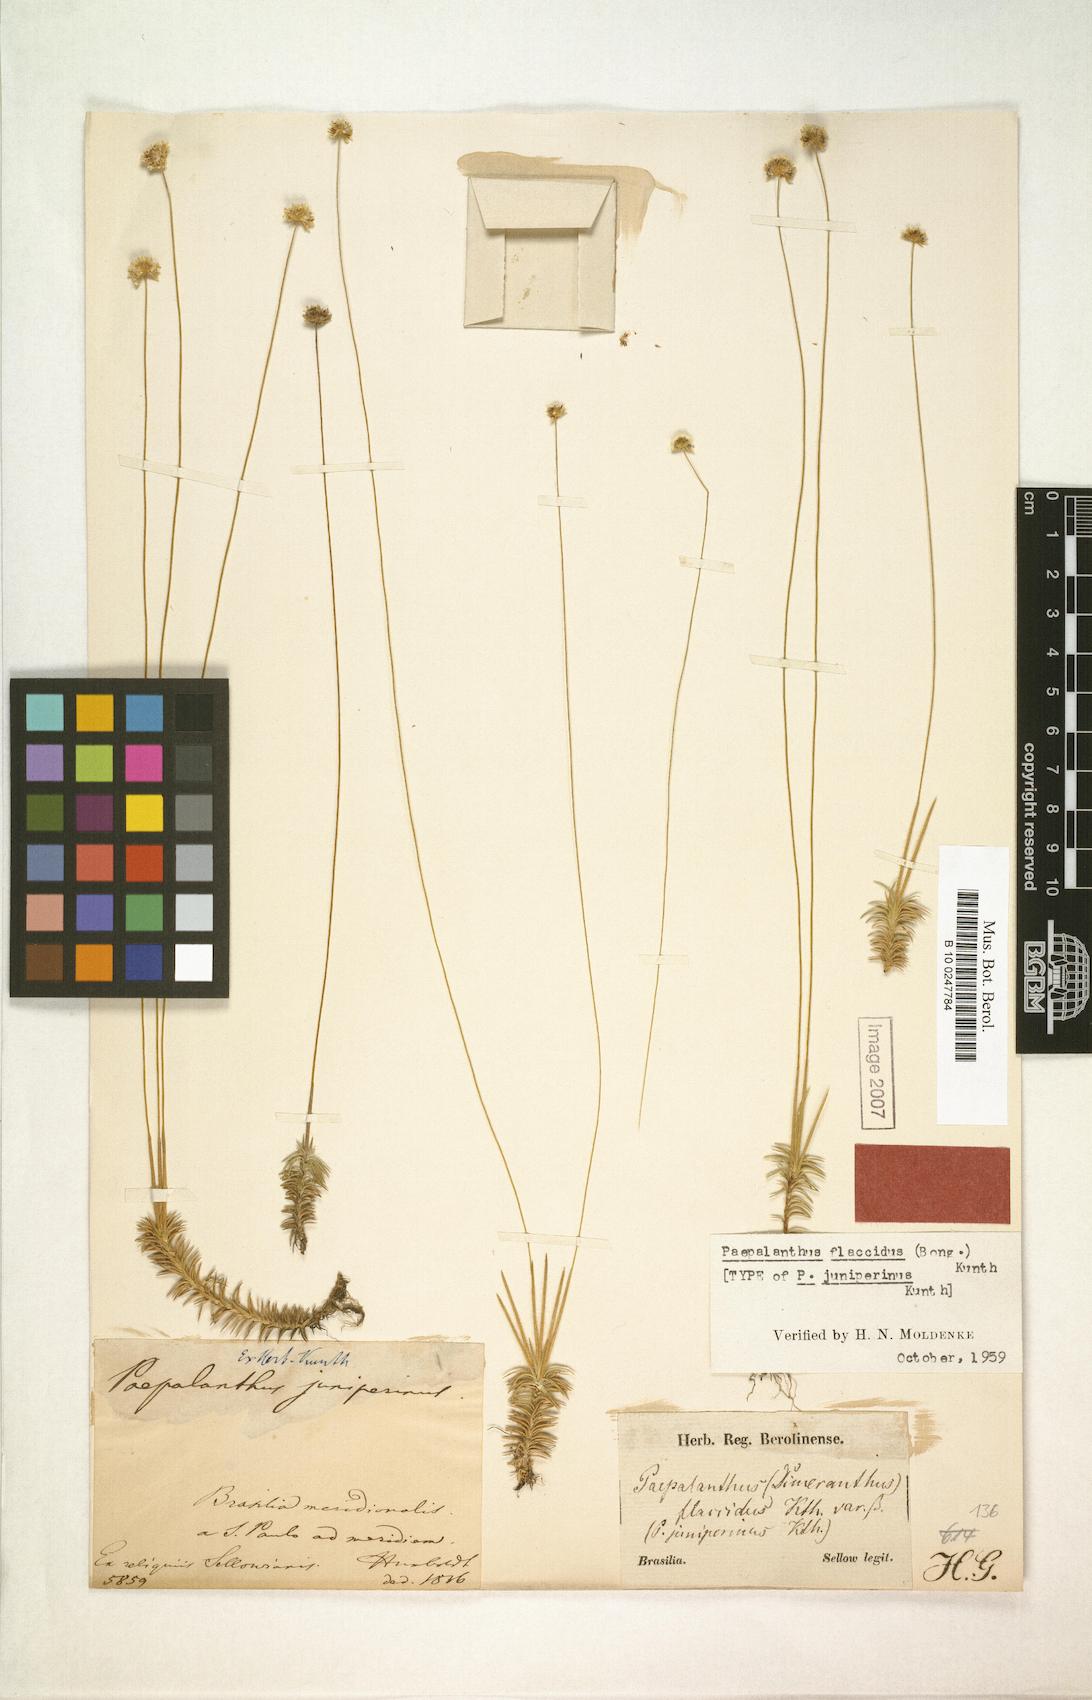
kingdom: Plantae
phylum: Tracheophyta
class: Liliopsida
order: Poales
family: Eriocaulaceae
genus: Paepalanthus
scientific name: Paepalanthus flaccidus
